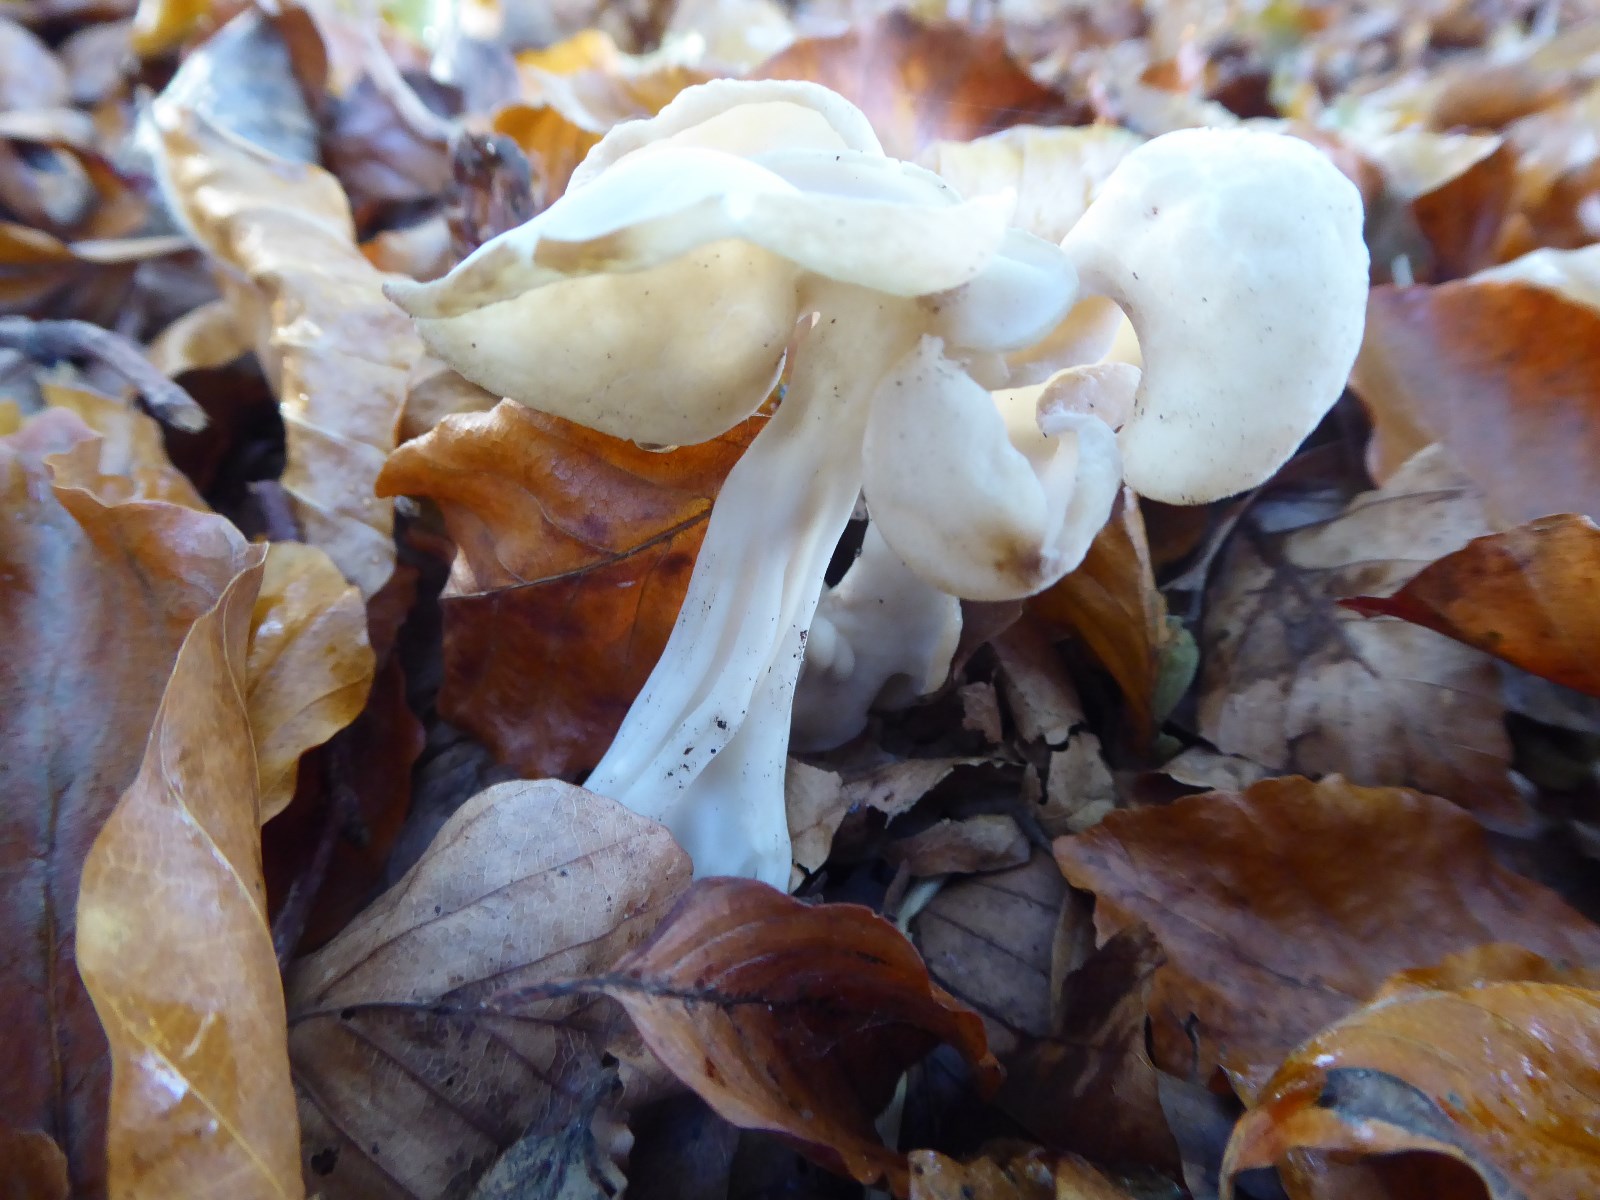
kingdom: Fungi
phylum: Ascomycota
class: Pezizomycetes
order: Pezizales
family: Helvellaceae
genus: Helvella
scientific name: Helvella crispa
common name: kruset foldhat
